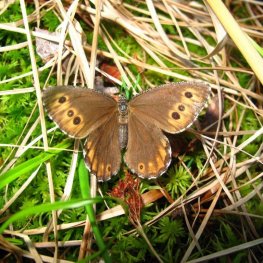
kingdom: Animalia
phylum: Arthropoda
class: Insecta
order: Lepidoptera
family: Nymphalidae
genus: Oeneis
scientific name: Oeneis jutta
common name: Jutta Arctic
